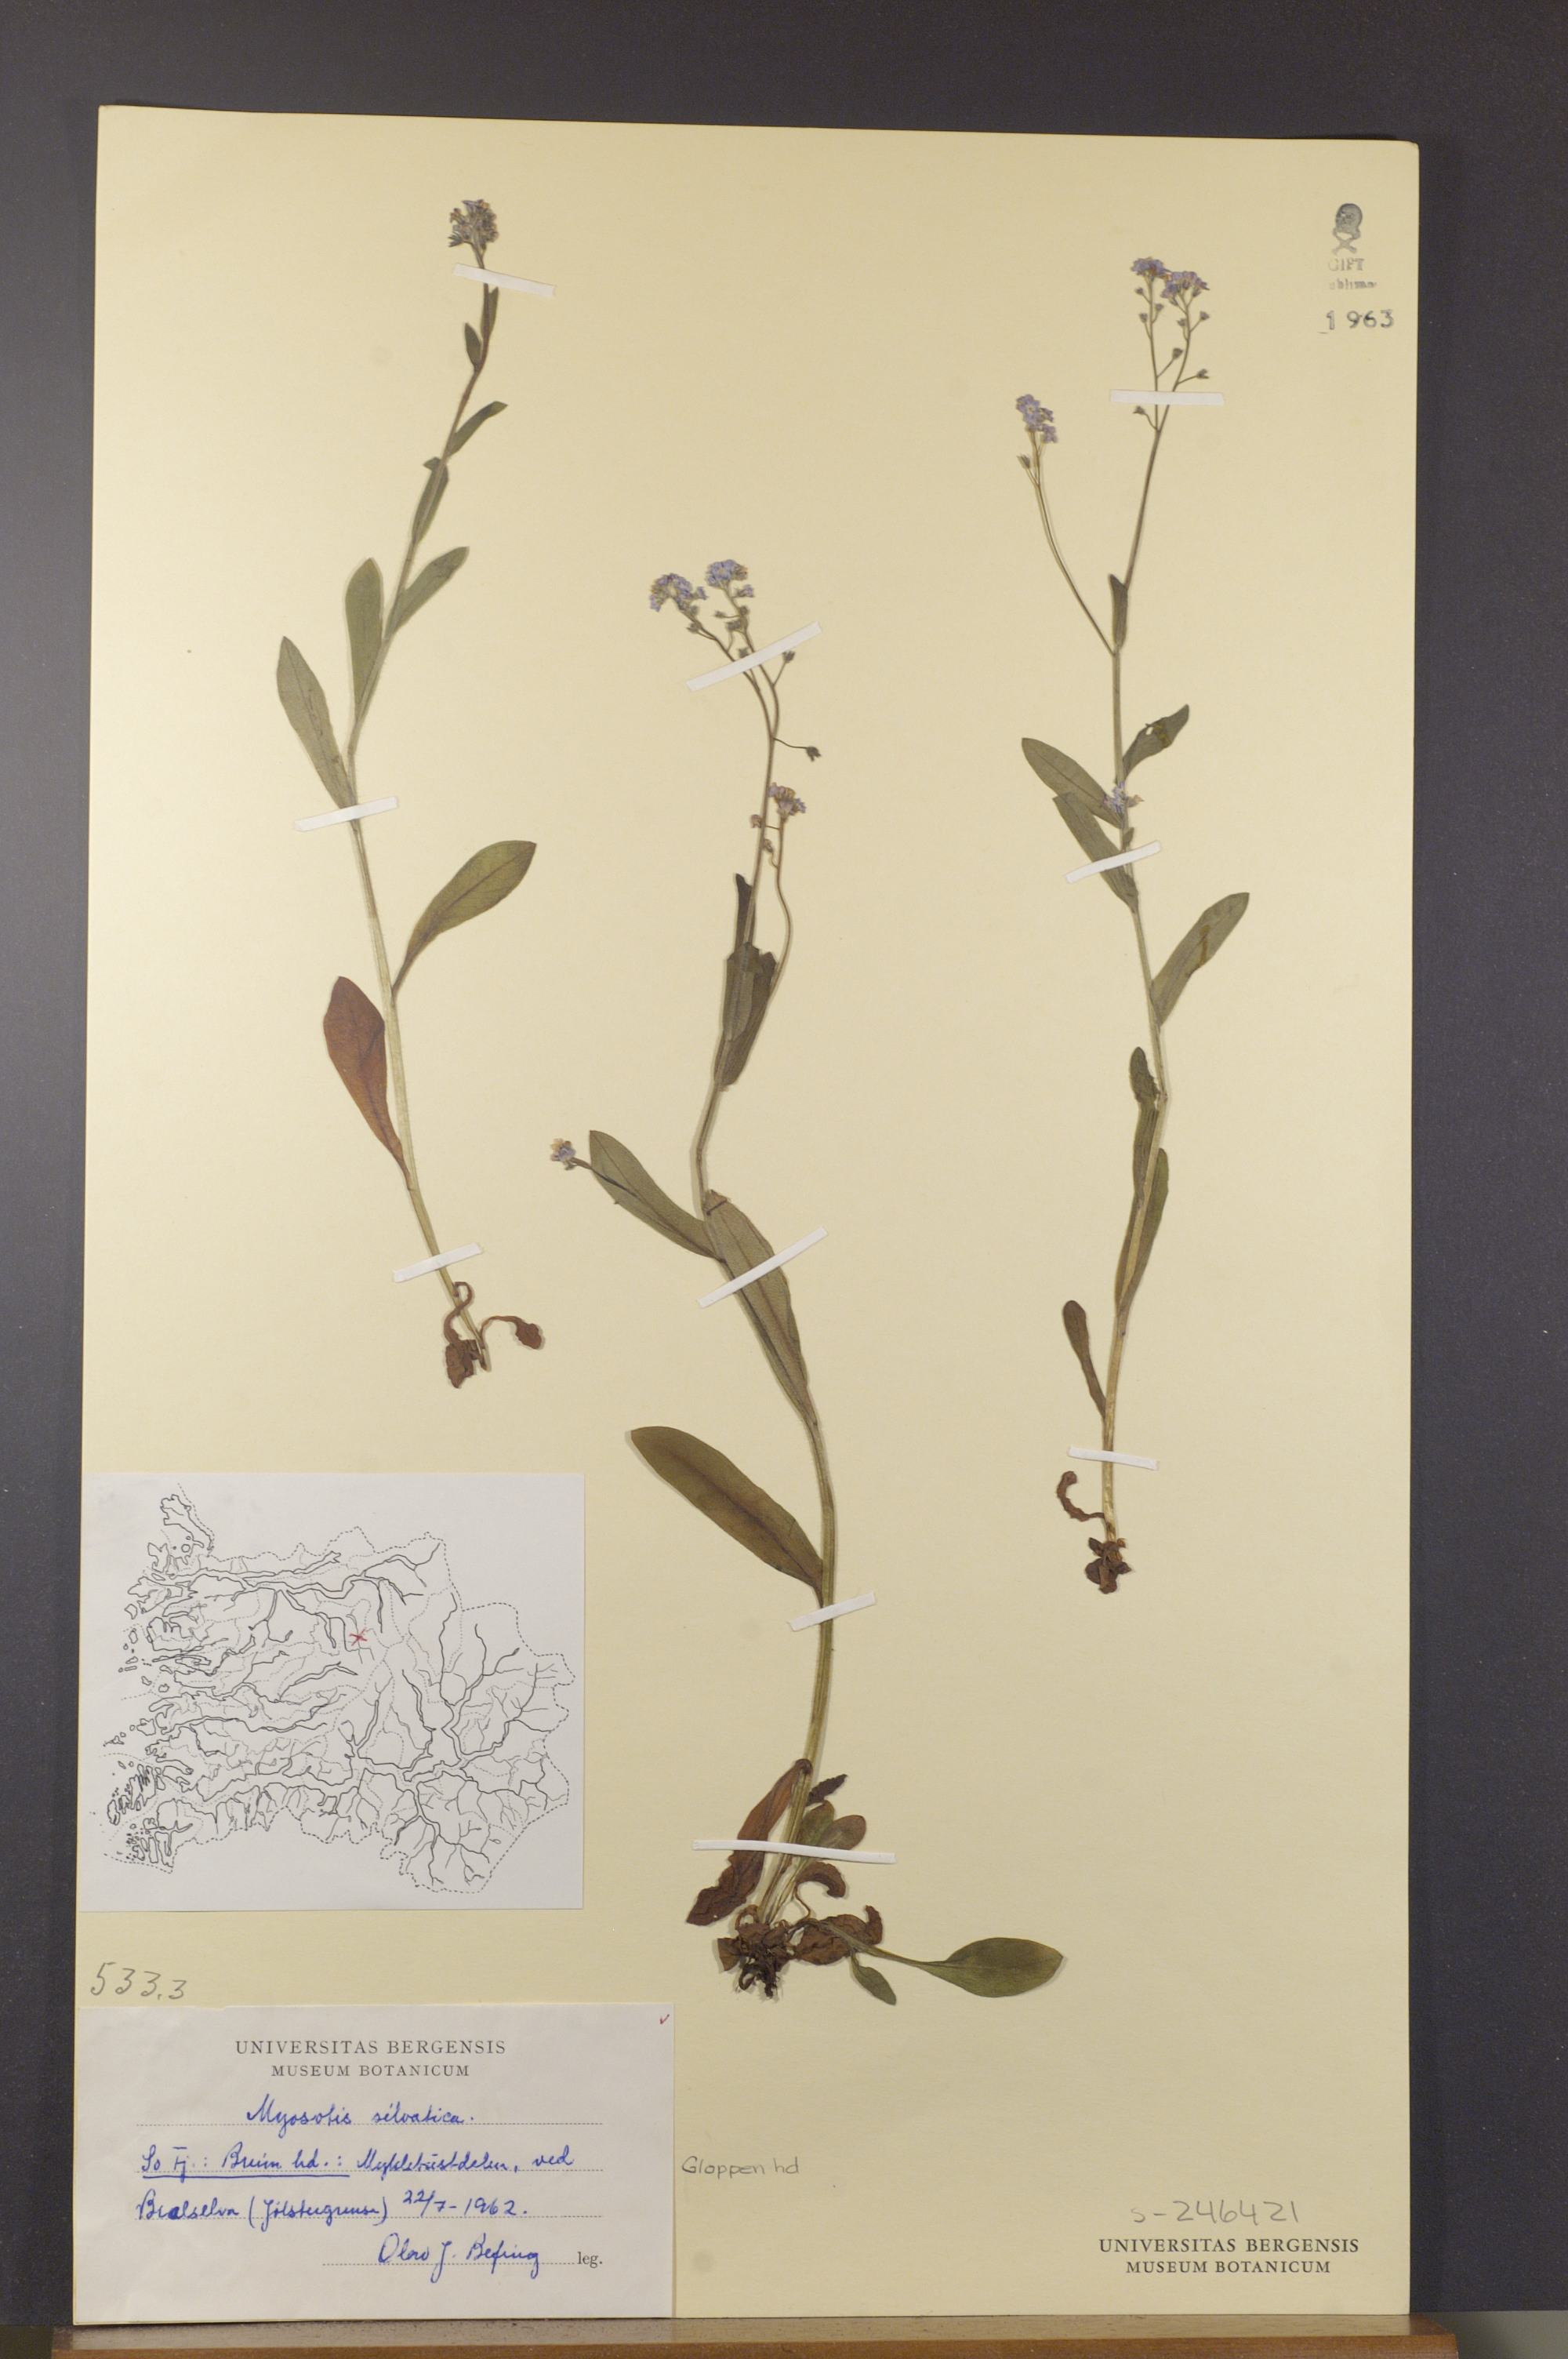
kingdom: Plantae
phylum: Tracheophyta
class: Magnoliopsida
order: Boraginales
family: Boraginaceae
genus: Myosotis
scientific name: Myosotis decumbens
